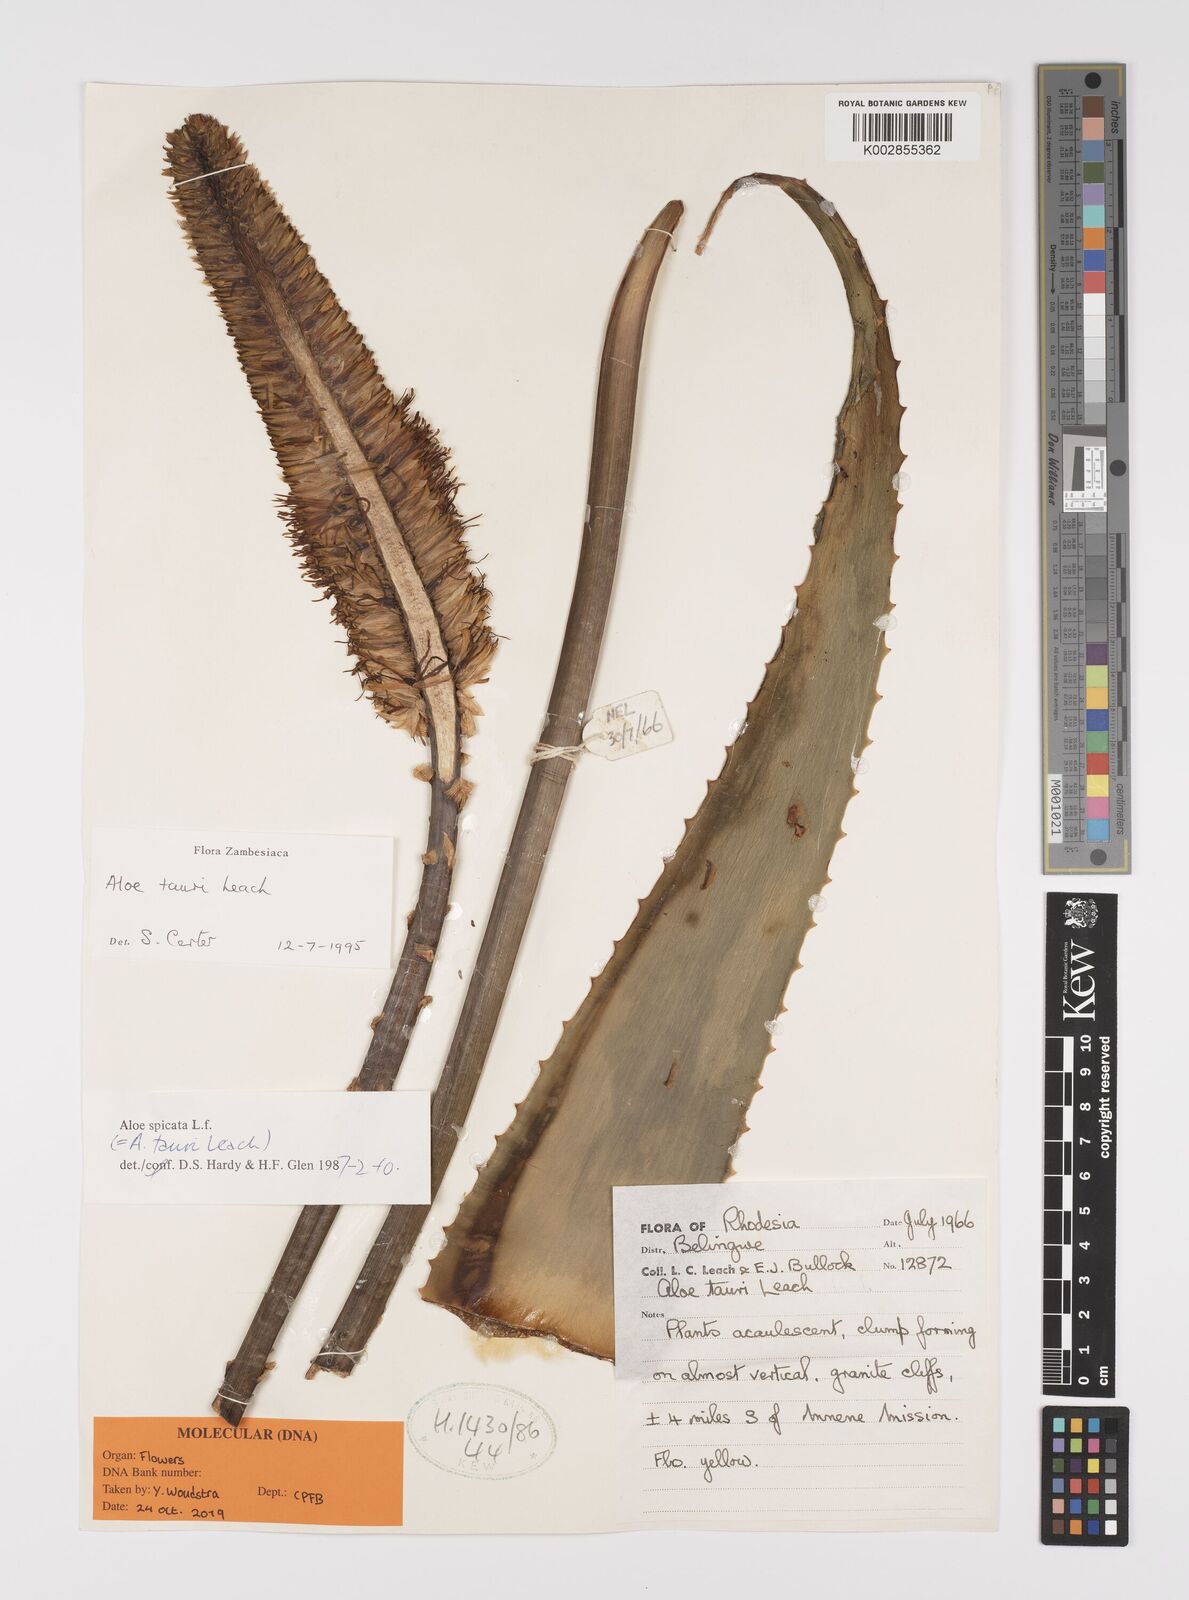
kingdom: Plantae
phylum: Tracheophyta
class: Liliopsida
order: Asparagales
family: Asphodelaceae
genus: Aloe
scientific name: Aloe tauri
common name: Bullock's bottle brush aloe
